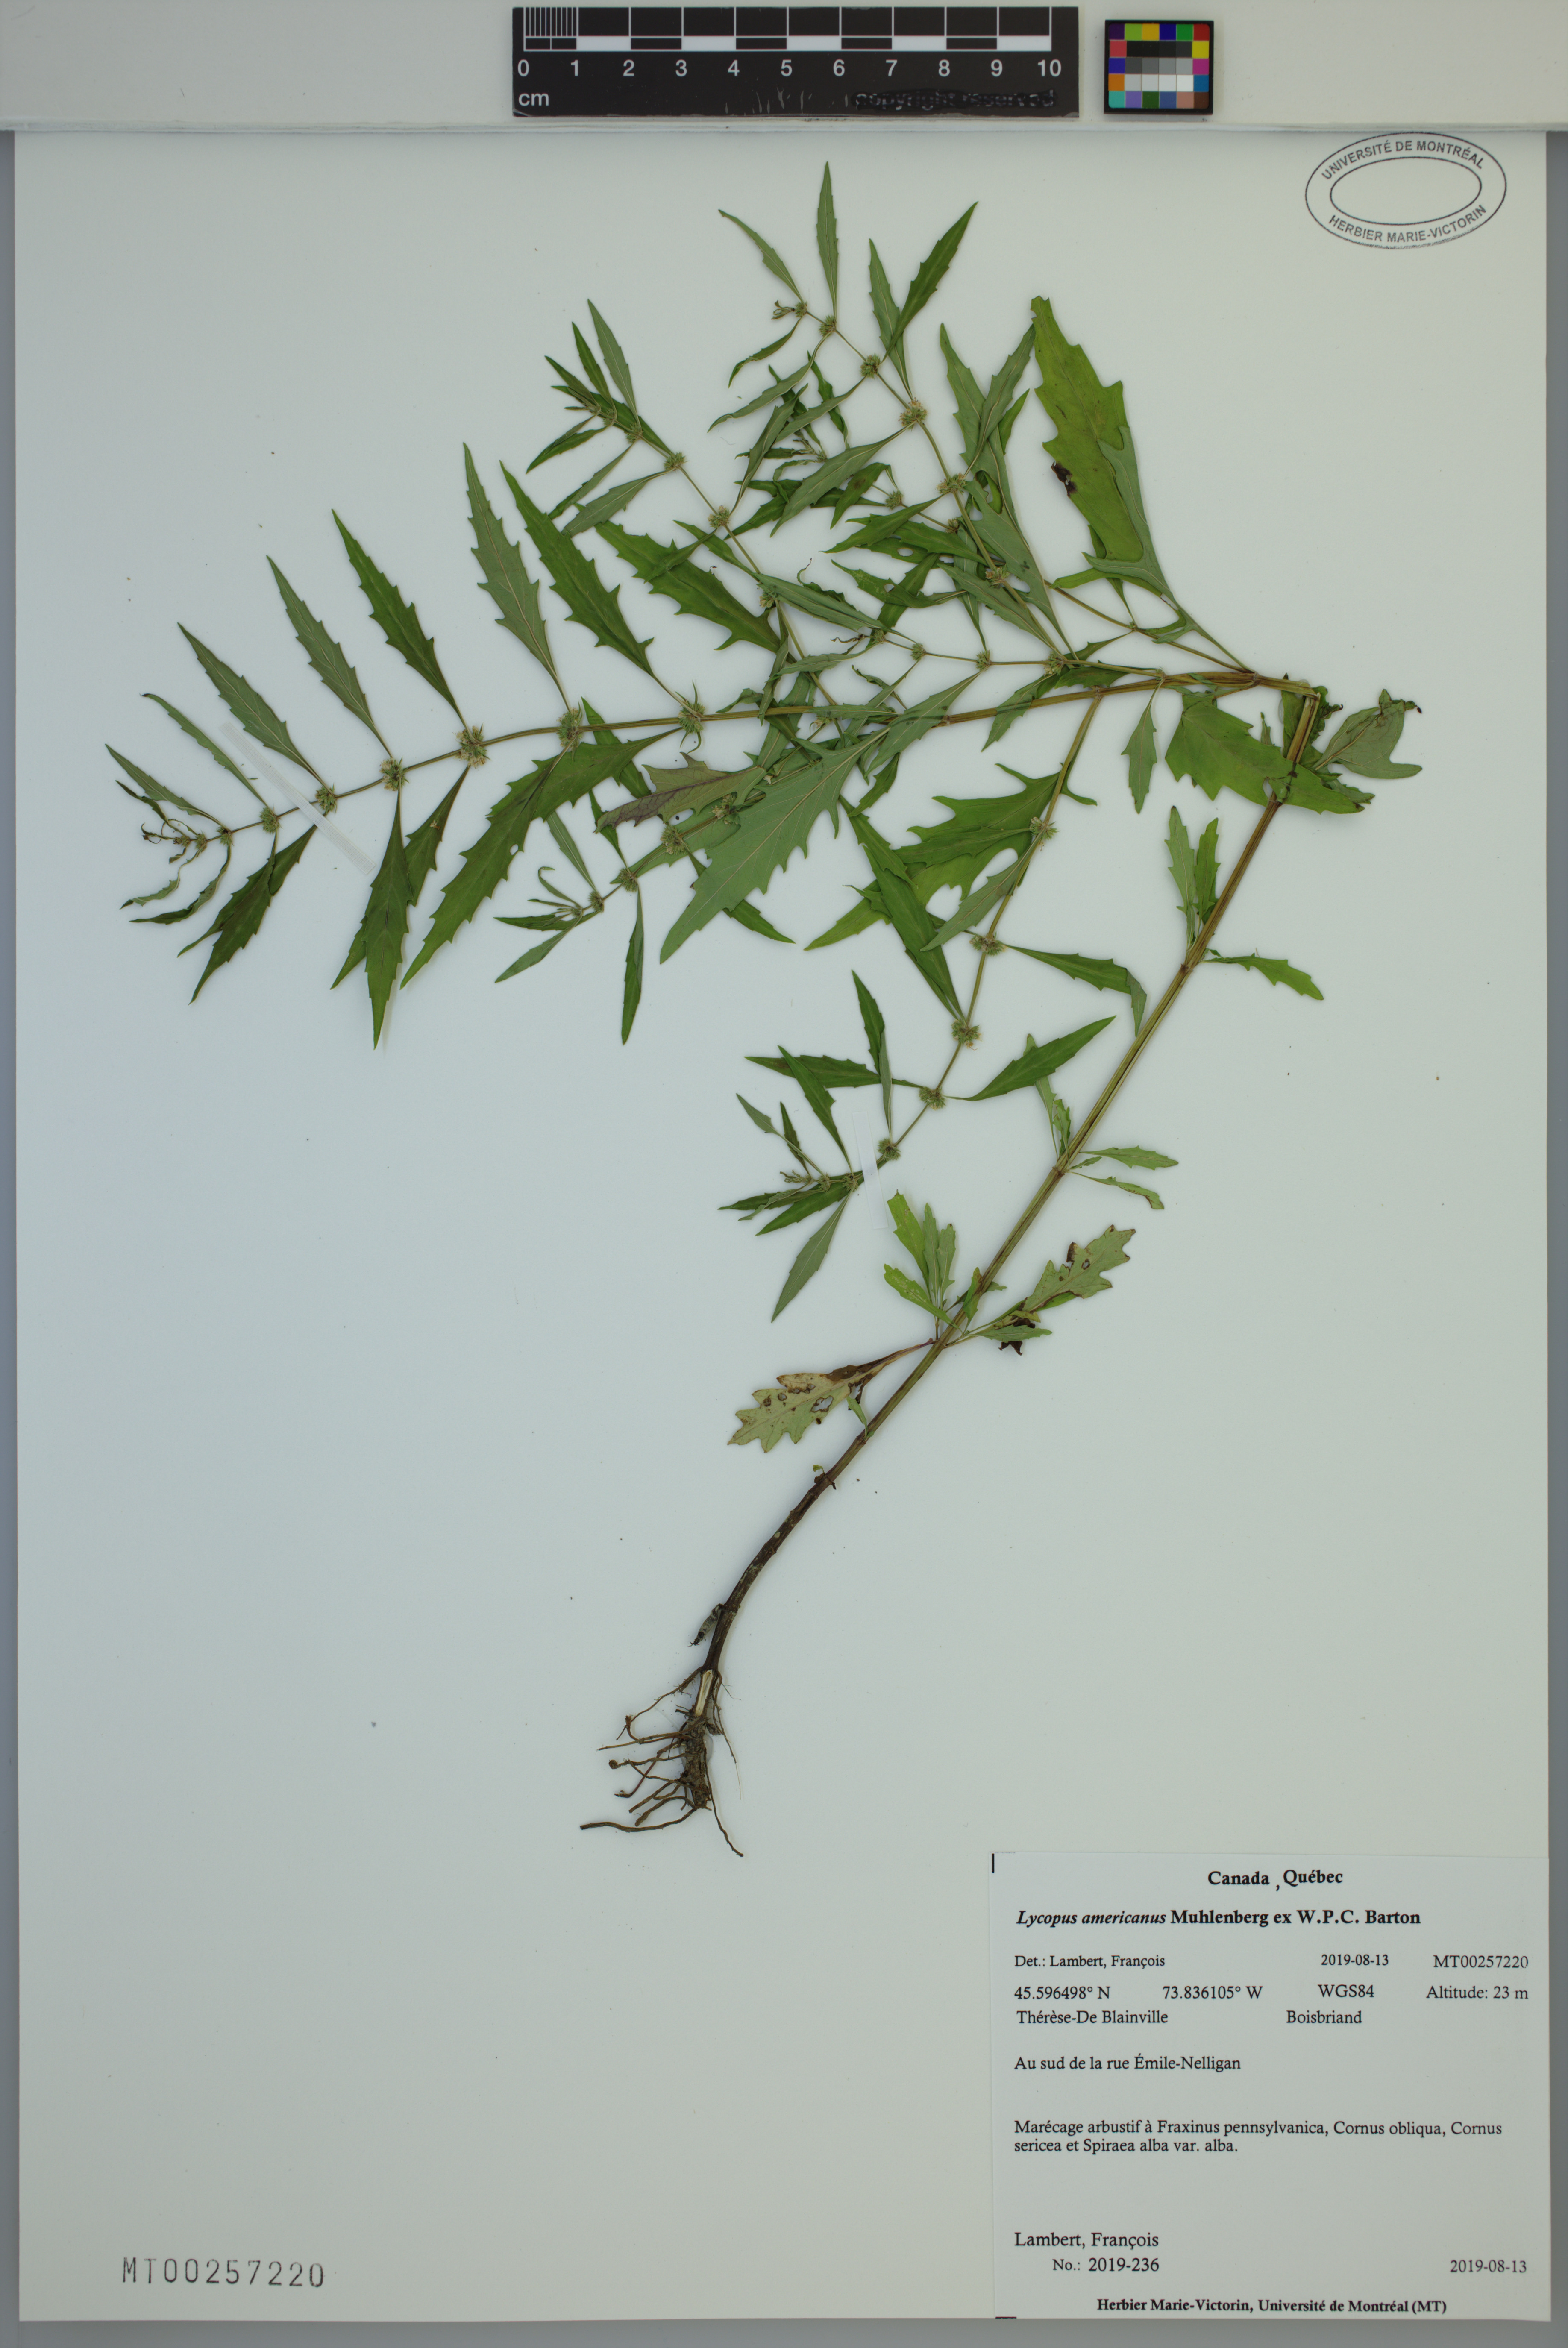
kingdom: Plantae
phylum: Tracheophyta
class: Magnoliopsida
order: Lamiales
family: Lamiaceae
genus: Lycopus
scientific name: Lycopus americanus
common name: American bugleweed
